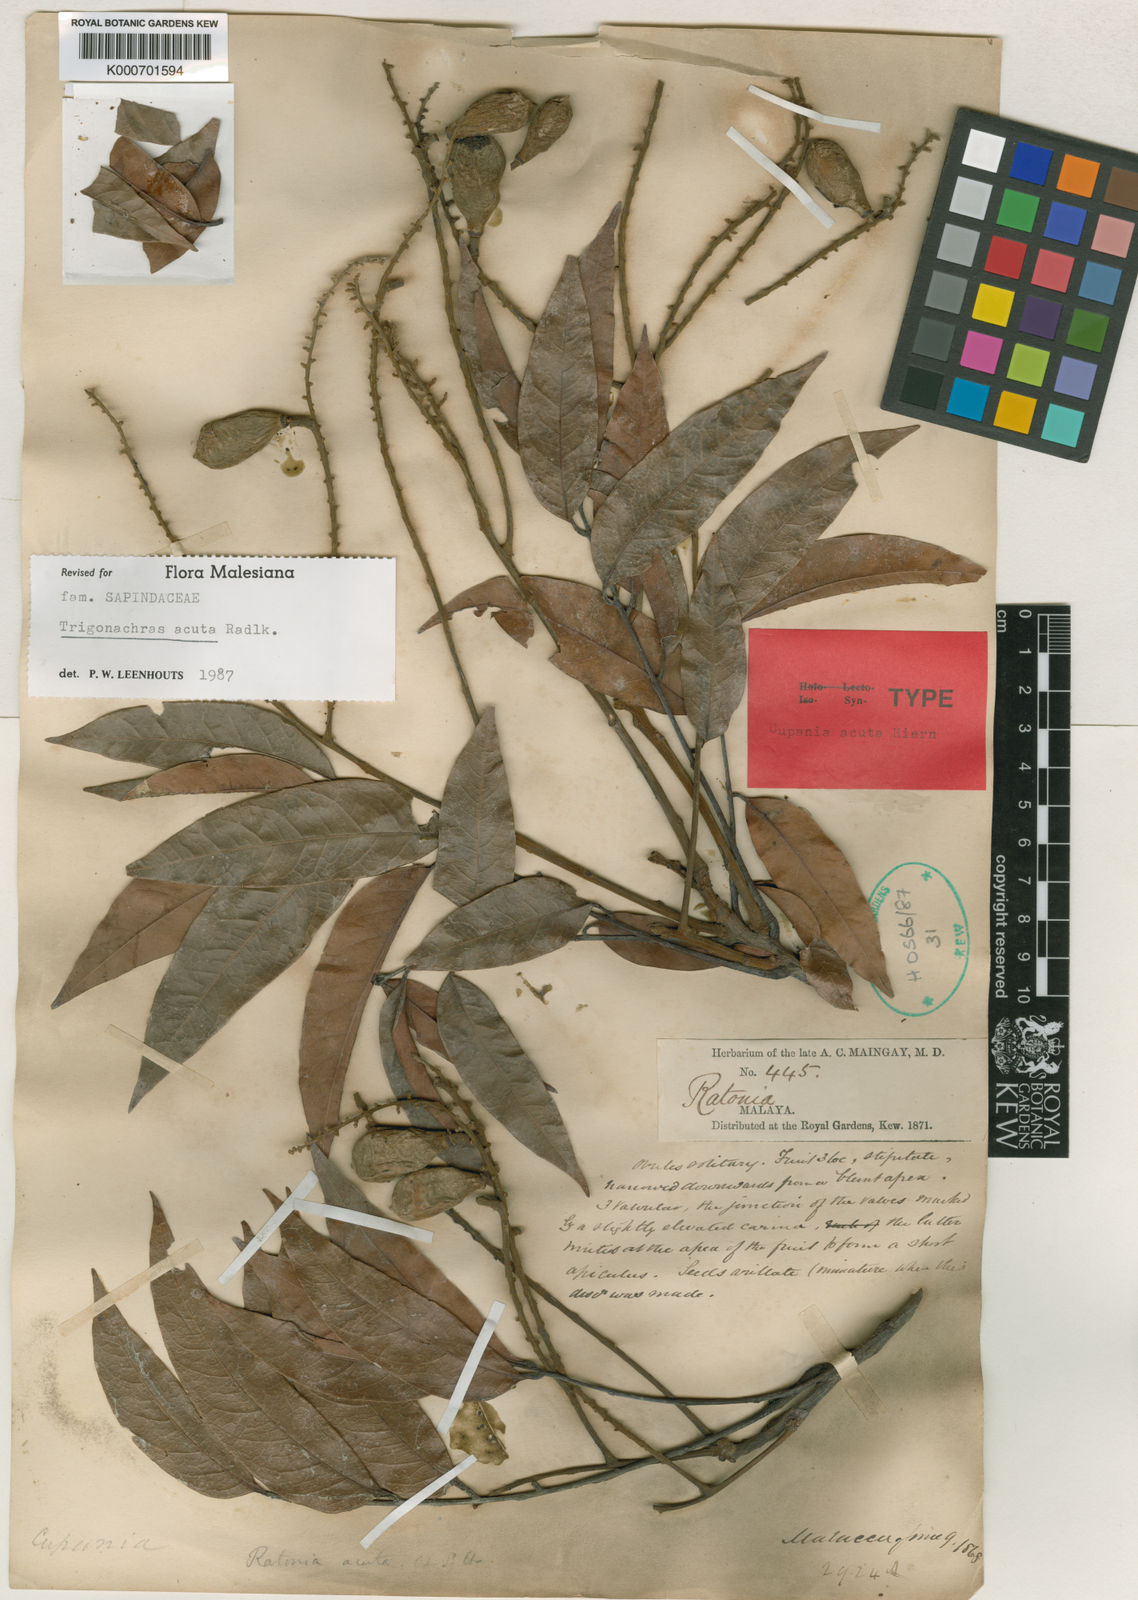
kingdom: Plantae
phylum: Tracheophyta
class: Magnoliopsida
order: Sapindales
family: Sapindaceae
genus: Trigonachras
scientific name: Trigonachras acuta
